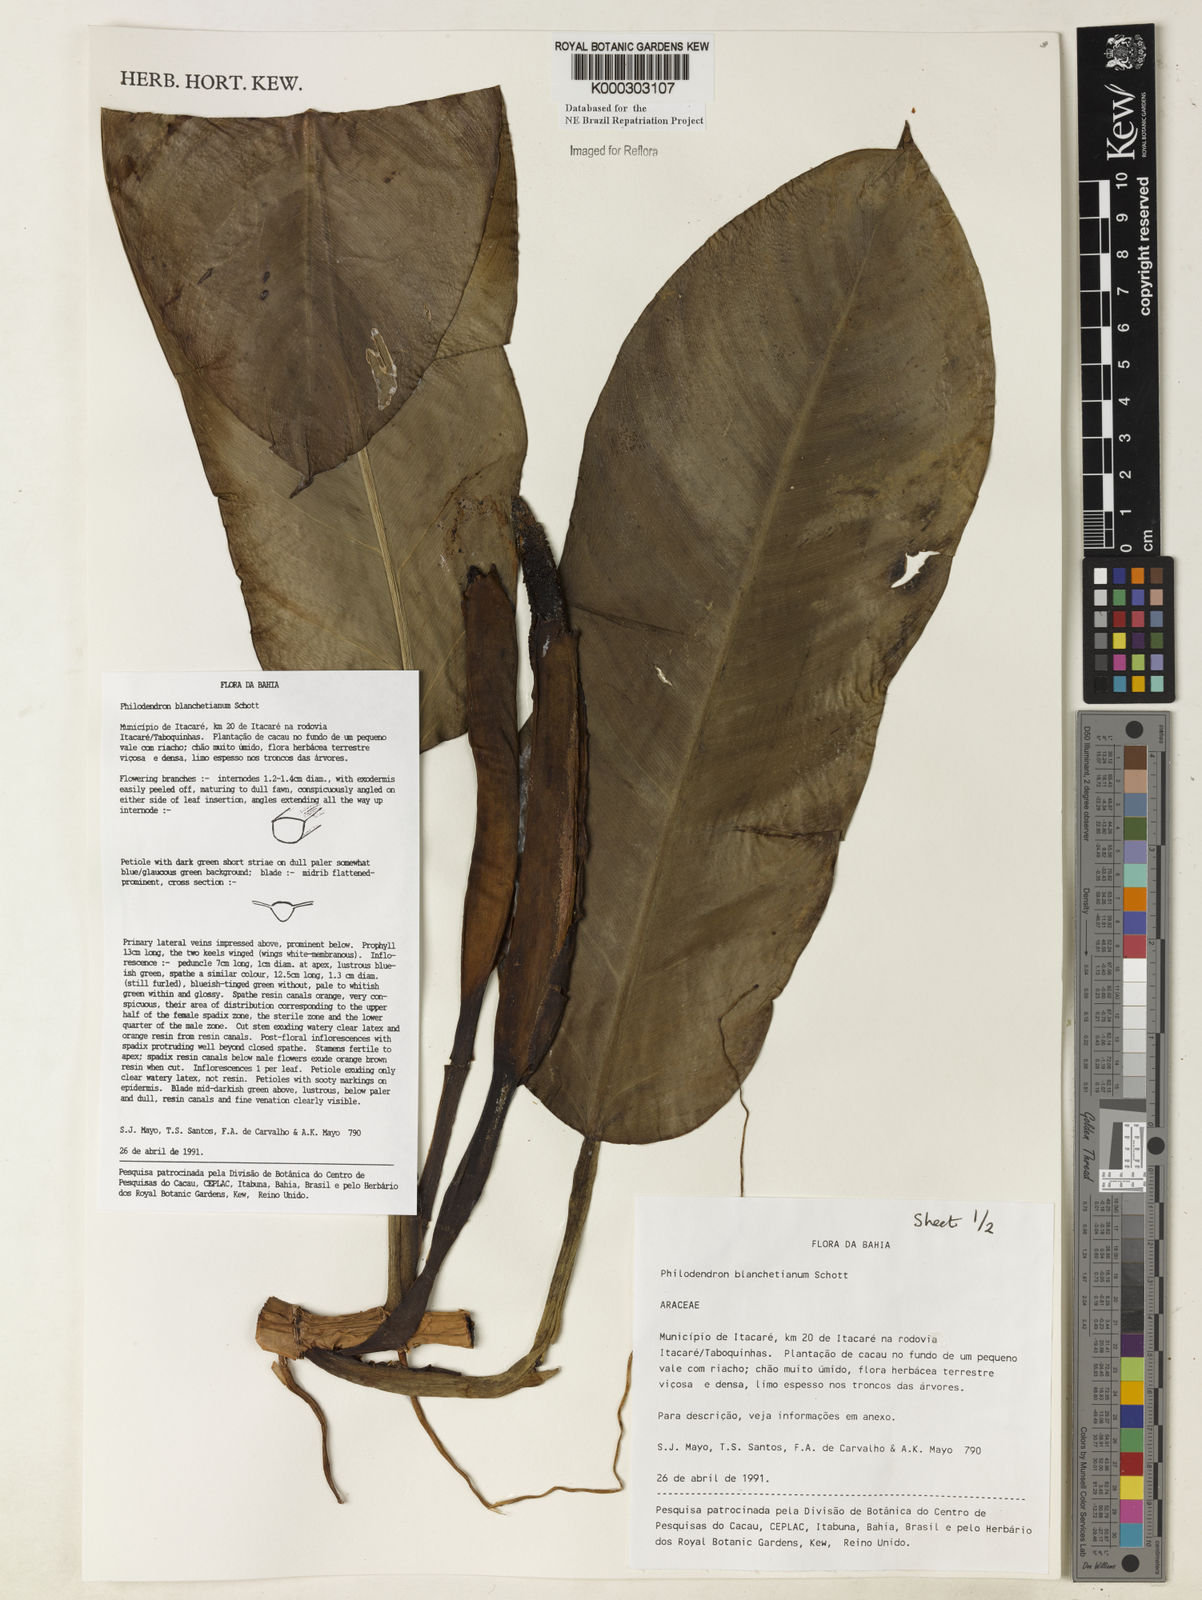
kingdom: Plantae
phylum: Tracheophyta
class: Liliopsida
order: Alismatales
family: Araceae
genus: Philodendron
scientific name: Philodendron blanchetianum
